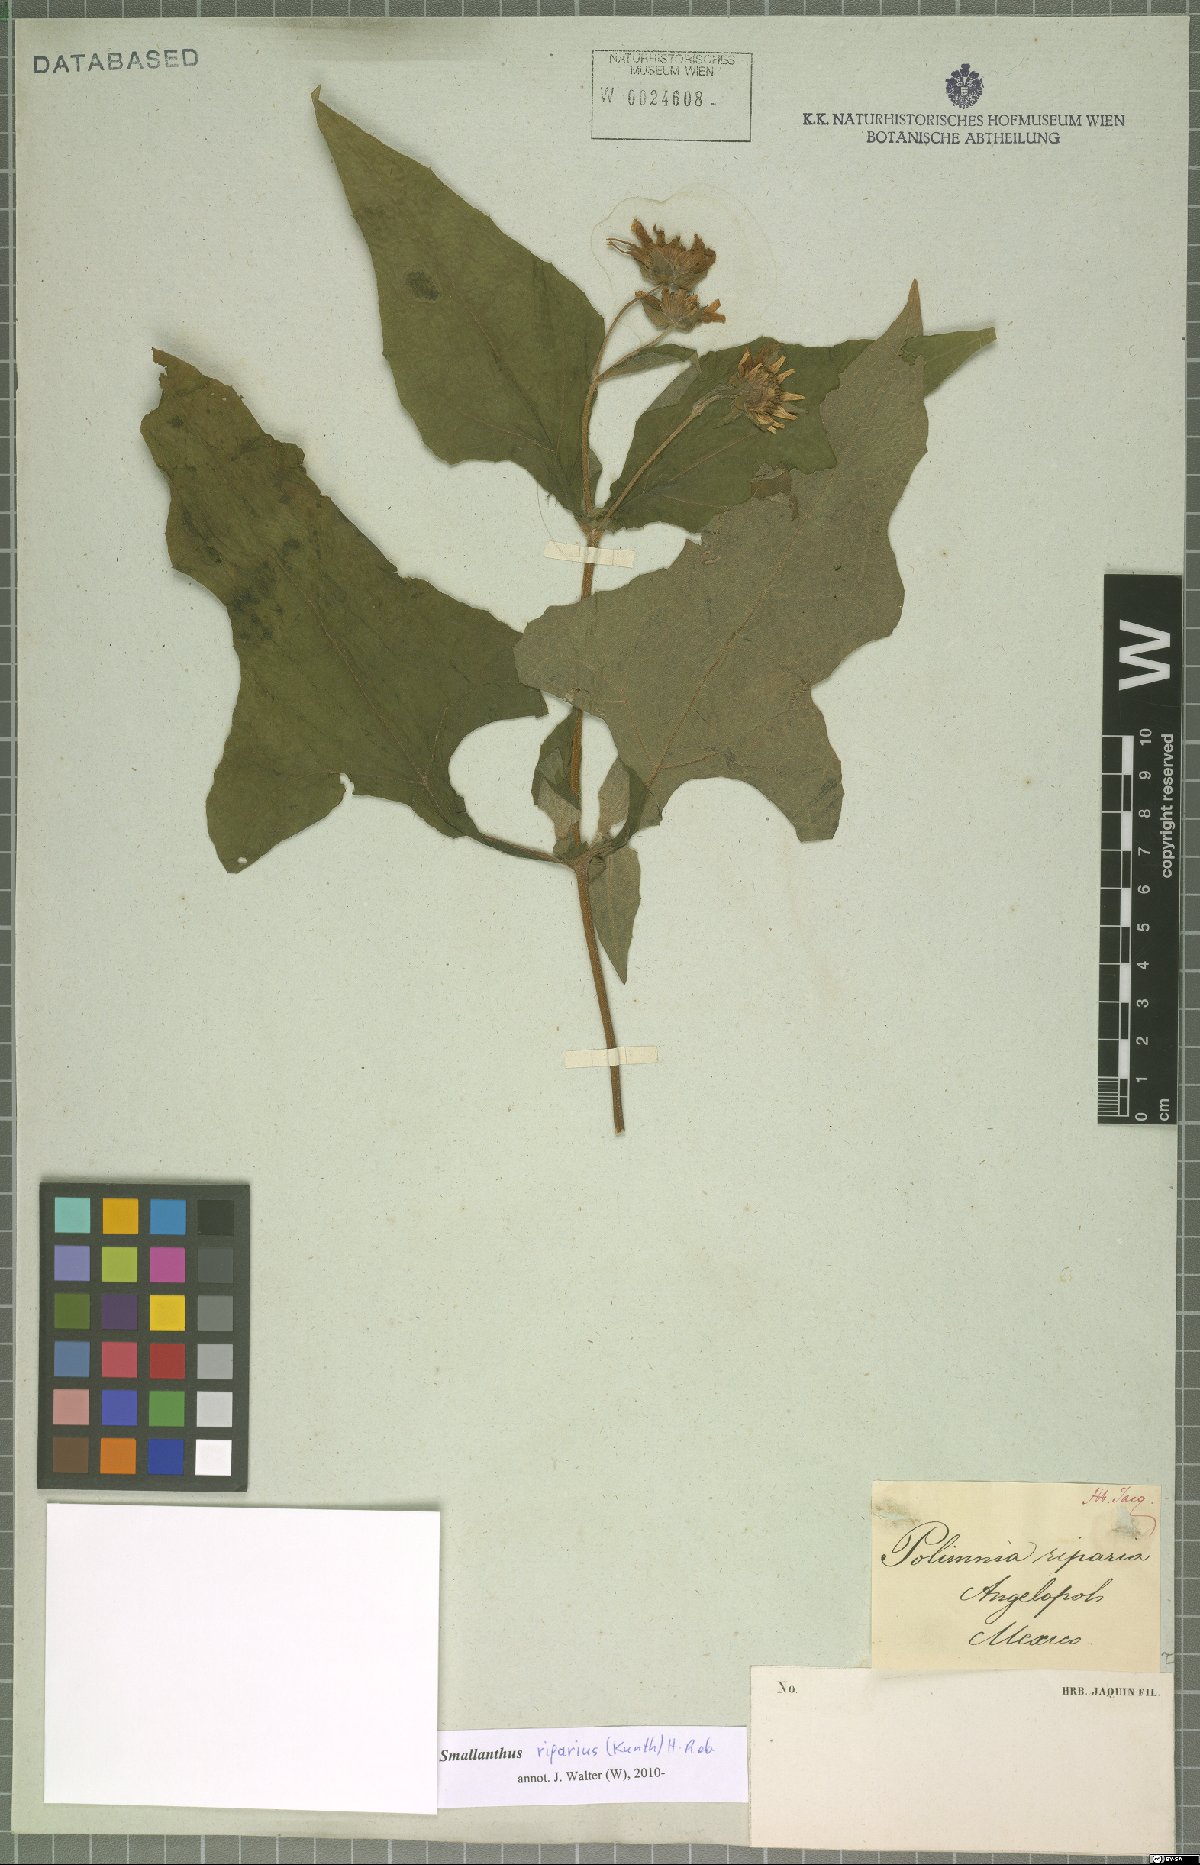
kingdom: Plantae
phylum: Tracheophyta
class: Magnoliopsida
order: Asterales
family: Asteraceae
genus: Smallanthus
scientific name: Smallanthus riparius
